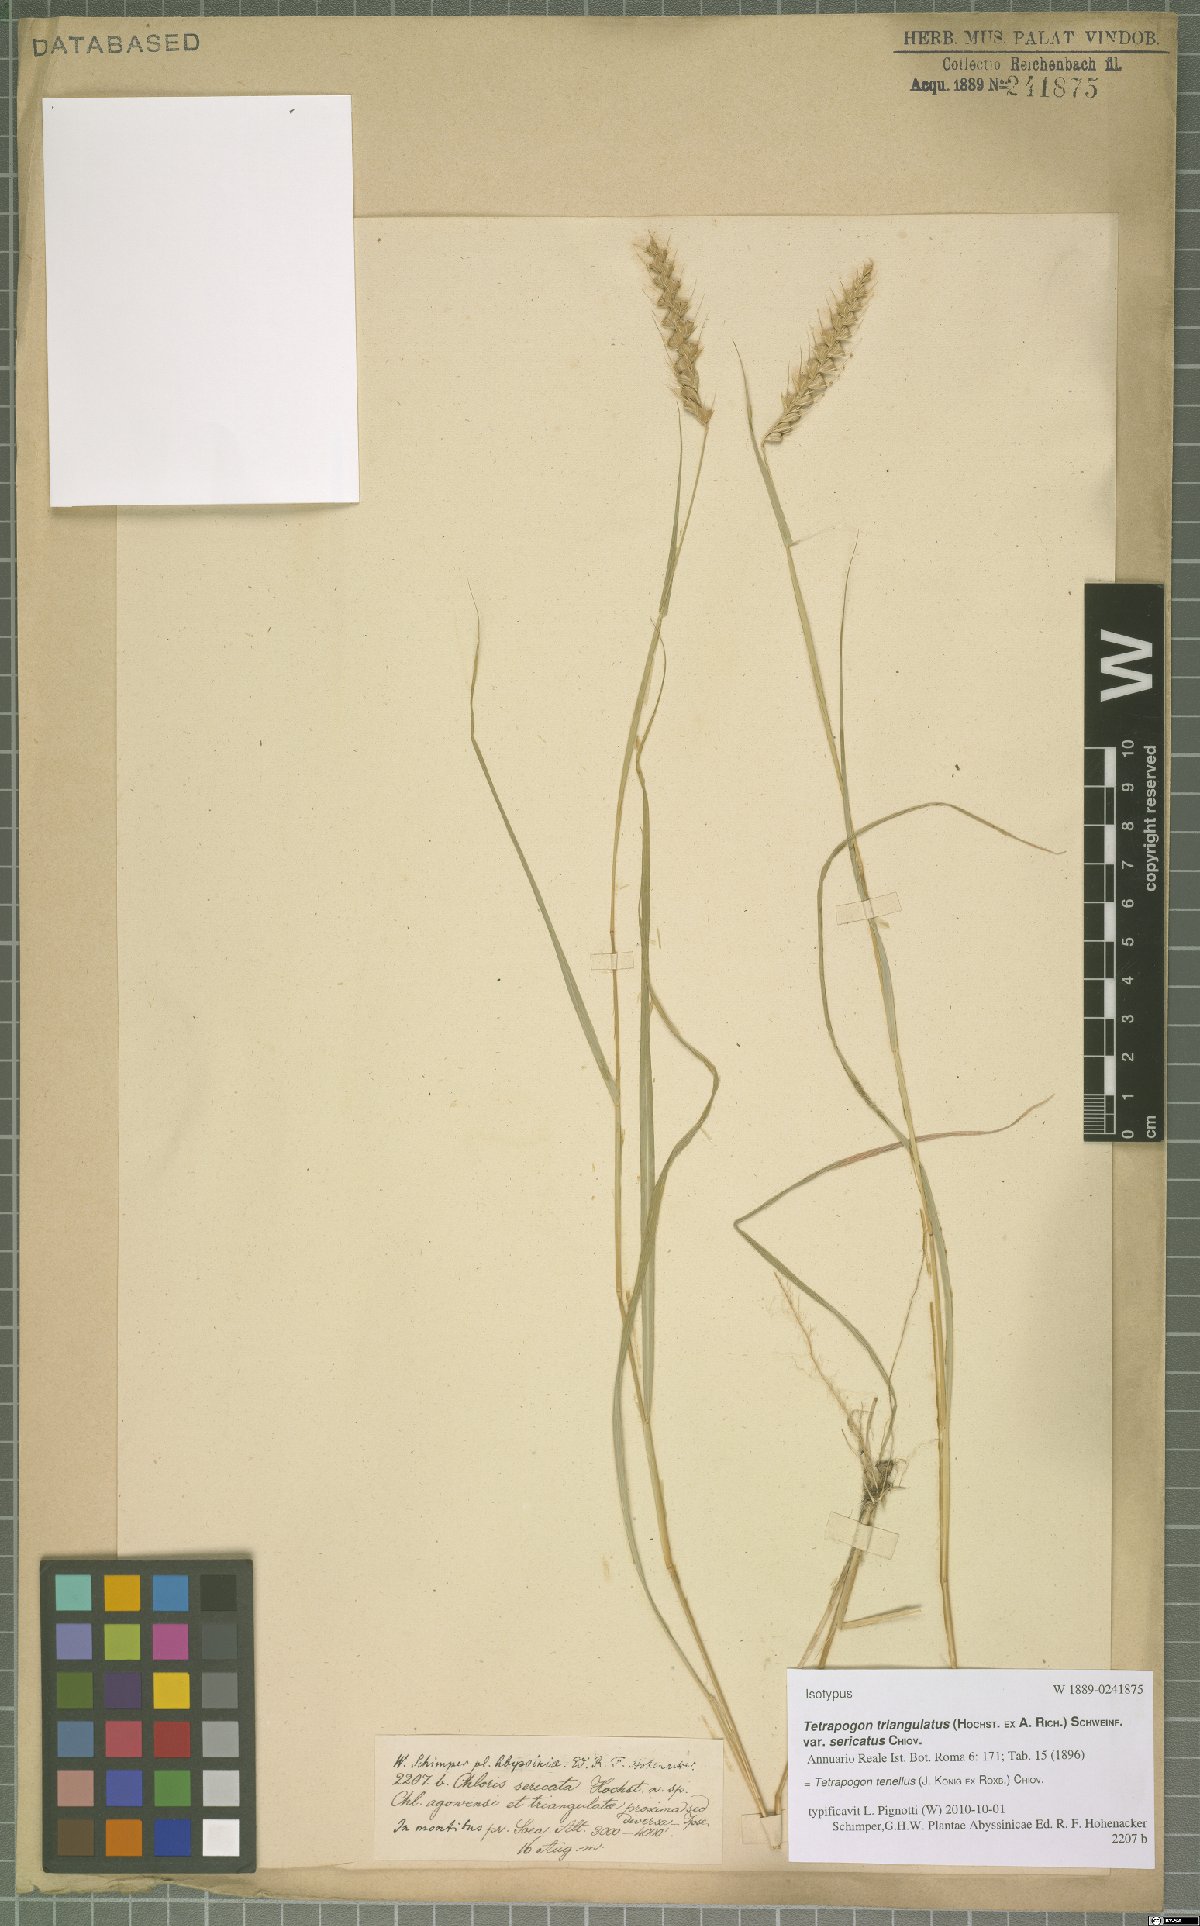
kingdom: Plantae
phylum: Tracheophyta
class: Liliopsida
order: Poales
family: Poaceae
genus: Tetrapogon
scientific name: Tetrapogon tenellus
